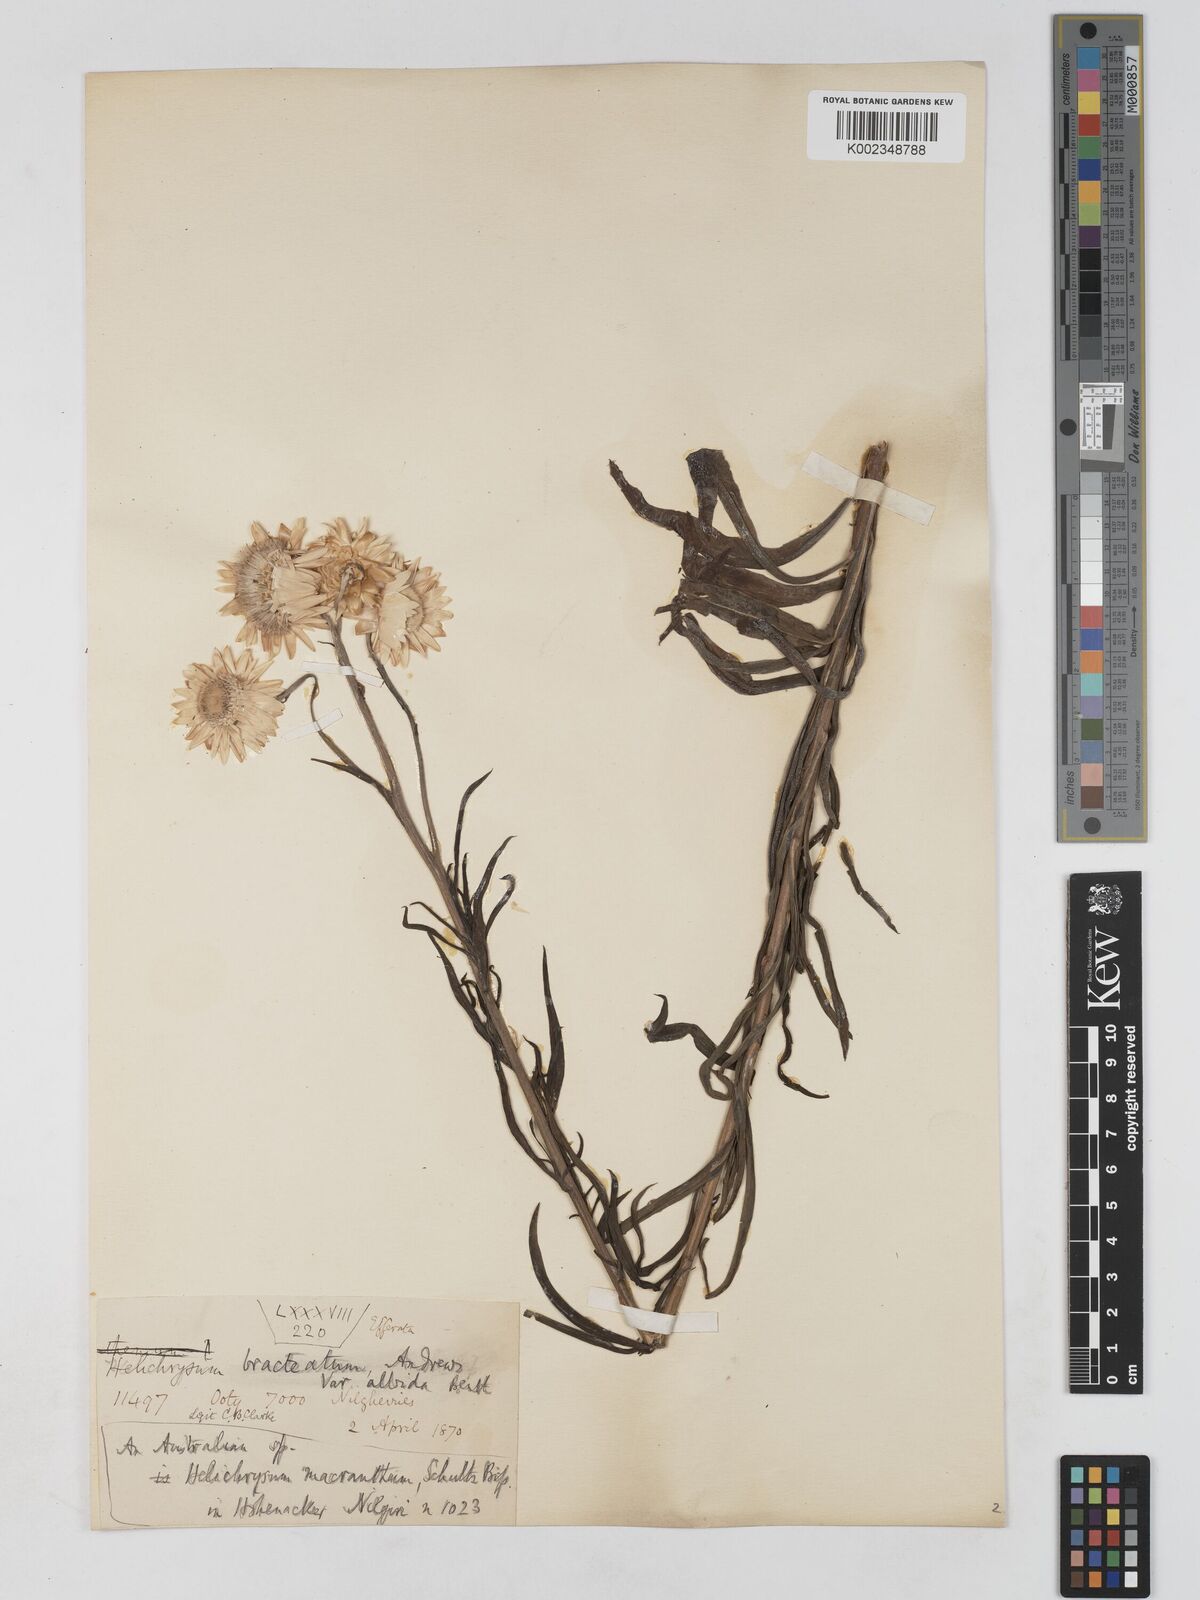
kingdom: Plantae
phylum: Tracheophyta
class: Magnoliopsida
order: Asterales
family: Asteraceae
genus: Xerochrysum
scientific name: Xerochrysum bracteatum
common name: Bracted strawflower
